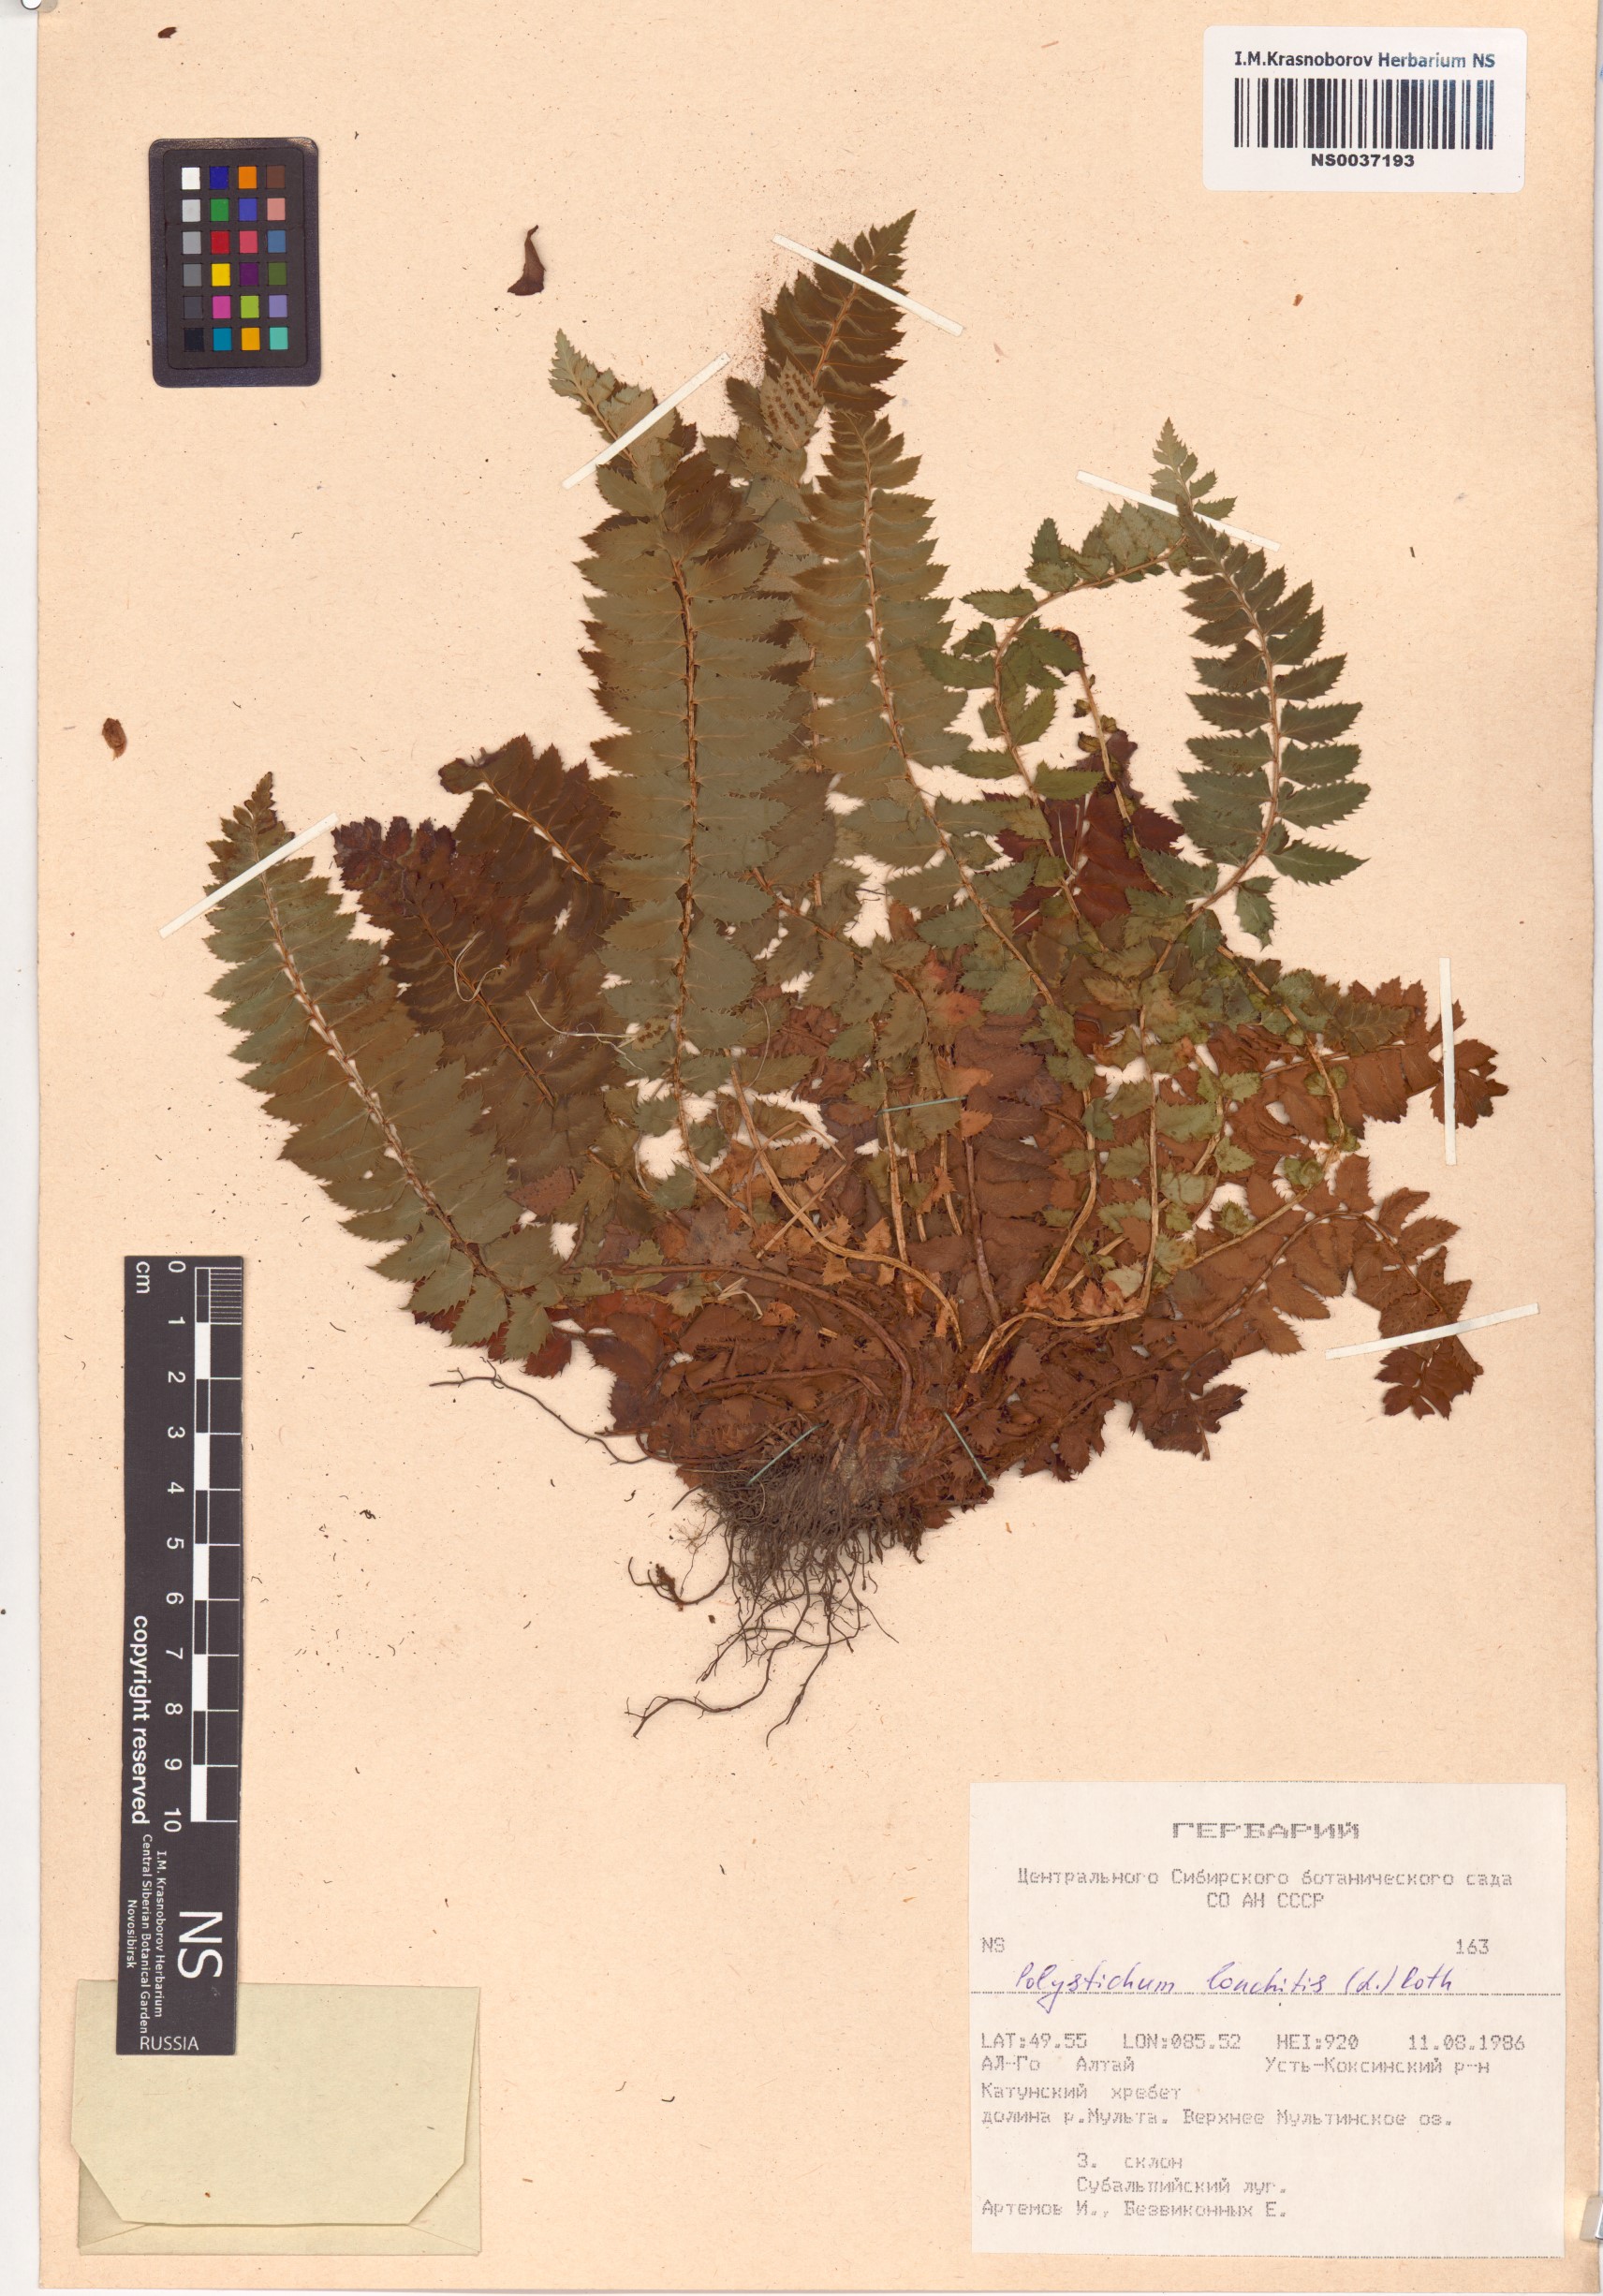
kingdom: Plantae
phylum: Tracheophyta
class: Polypodiopsida
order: Polypodiales
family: Dryopteridaceae
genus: Polystichum
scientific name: Polystichum lonchitis
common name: Holly fern
